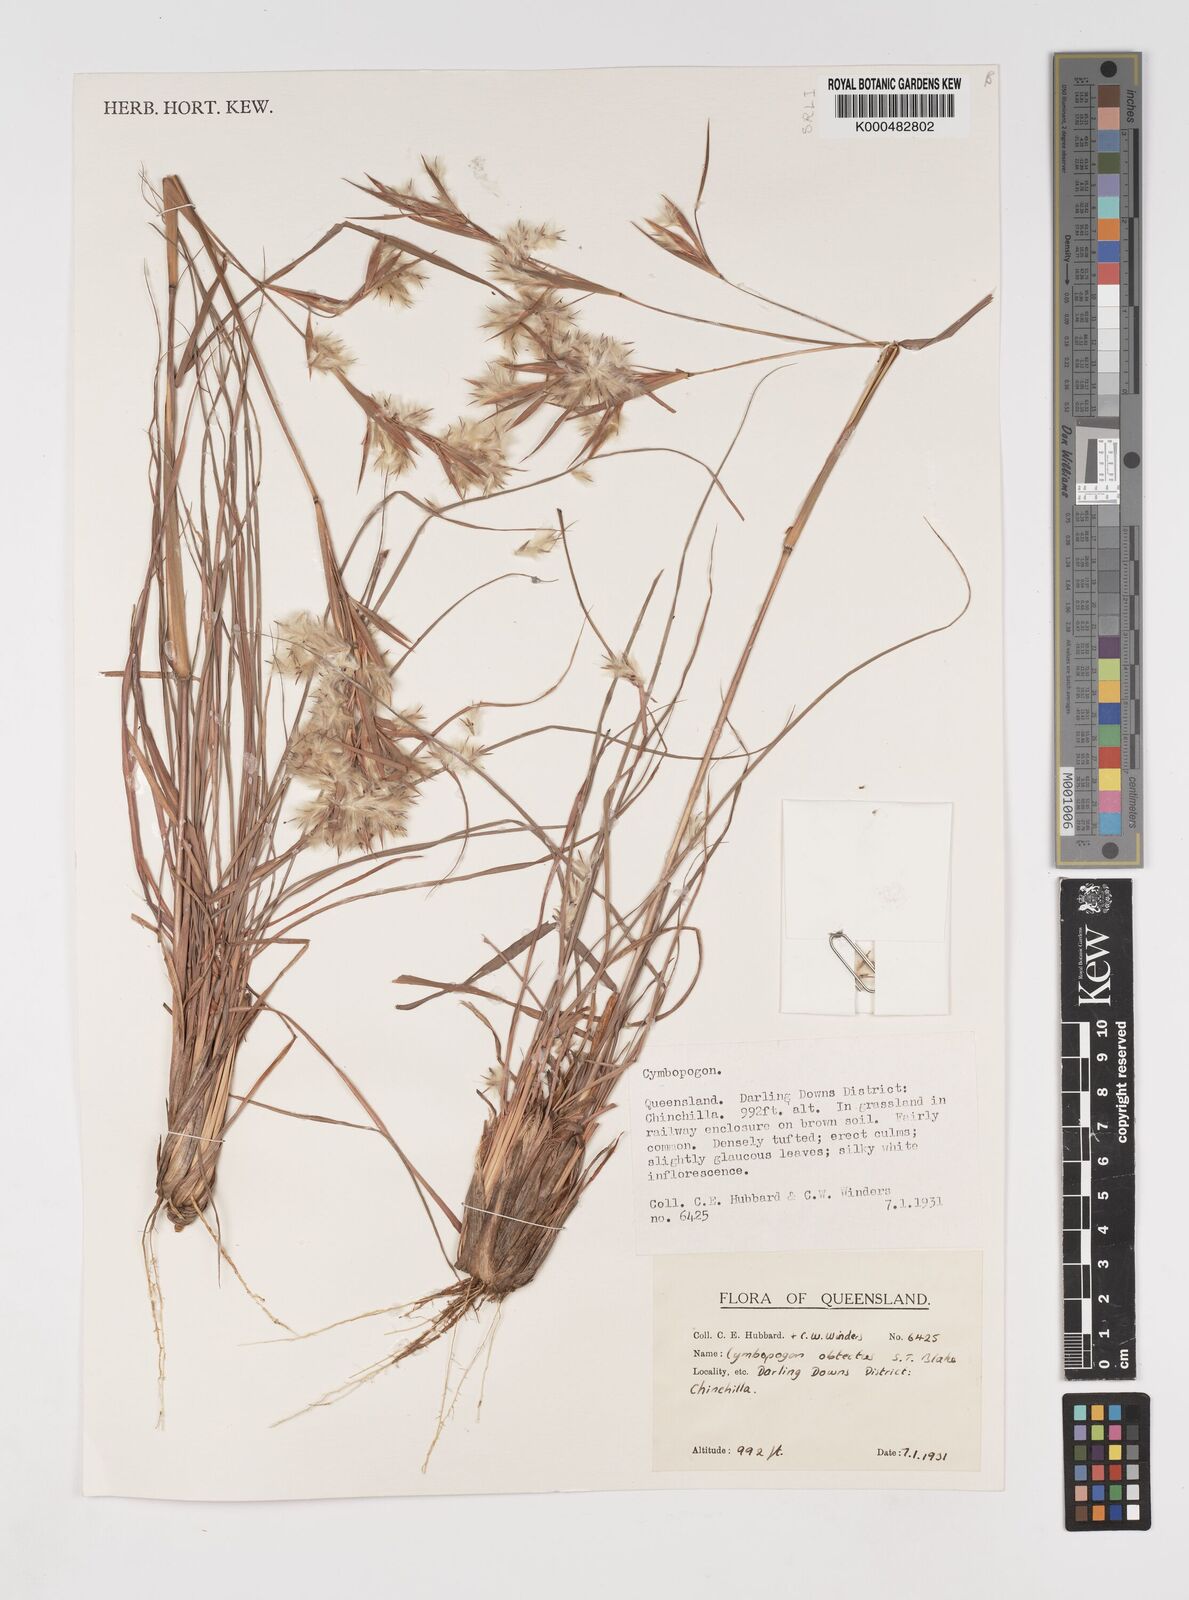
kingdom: Plantae
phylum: Tracheophyta
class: Liliopsida
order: Poales
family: Poaceae
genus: Cymbopogon
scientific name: Cymbopogon obtectus
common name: Silky heads
